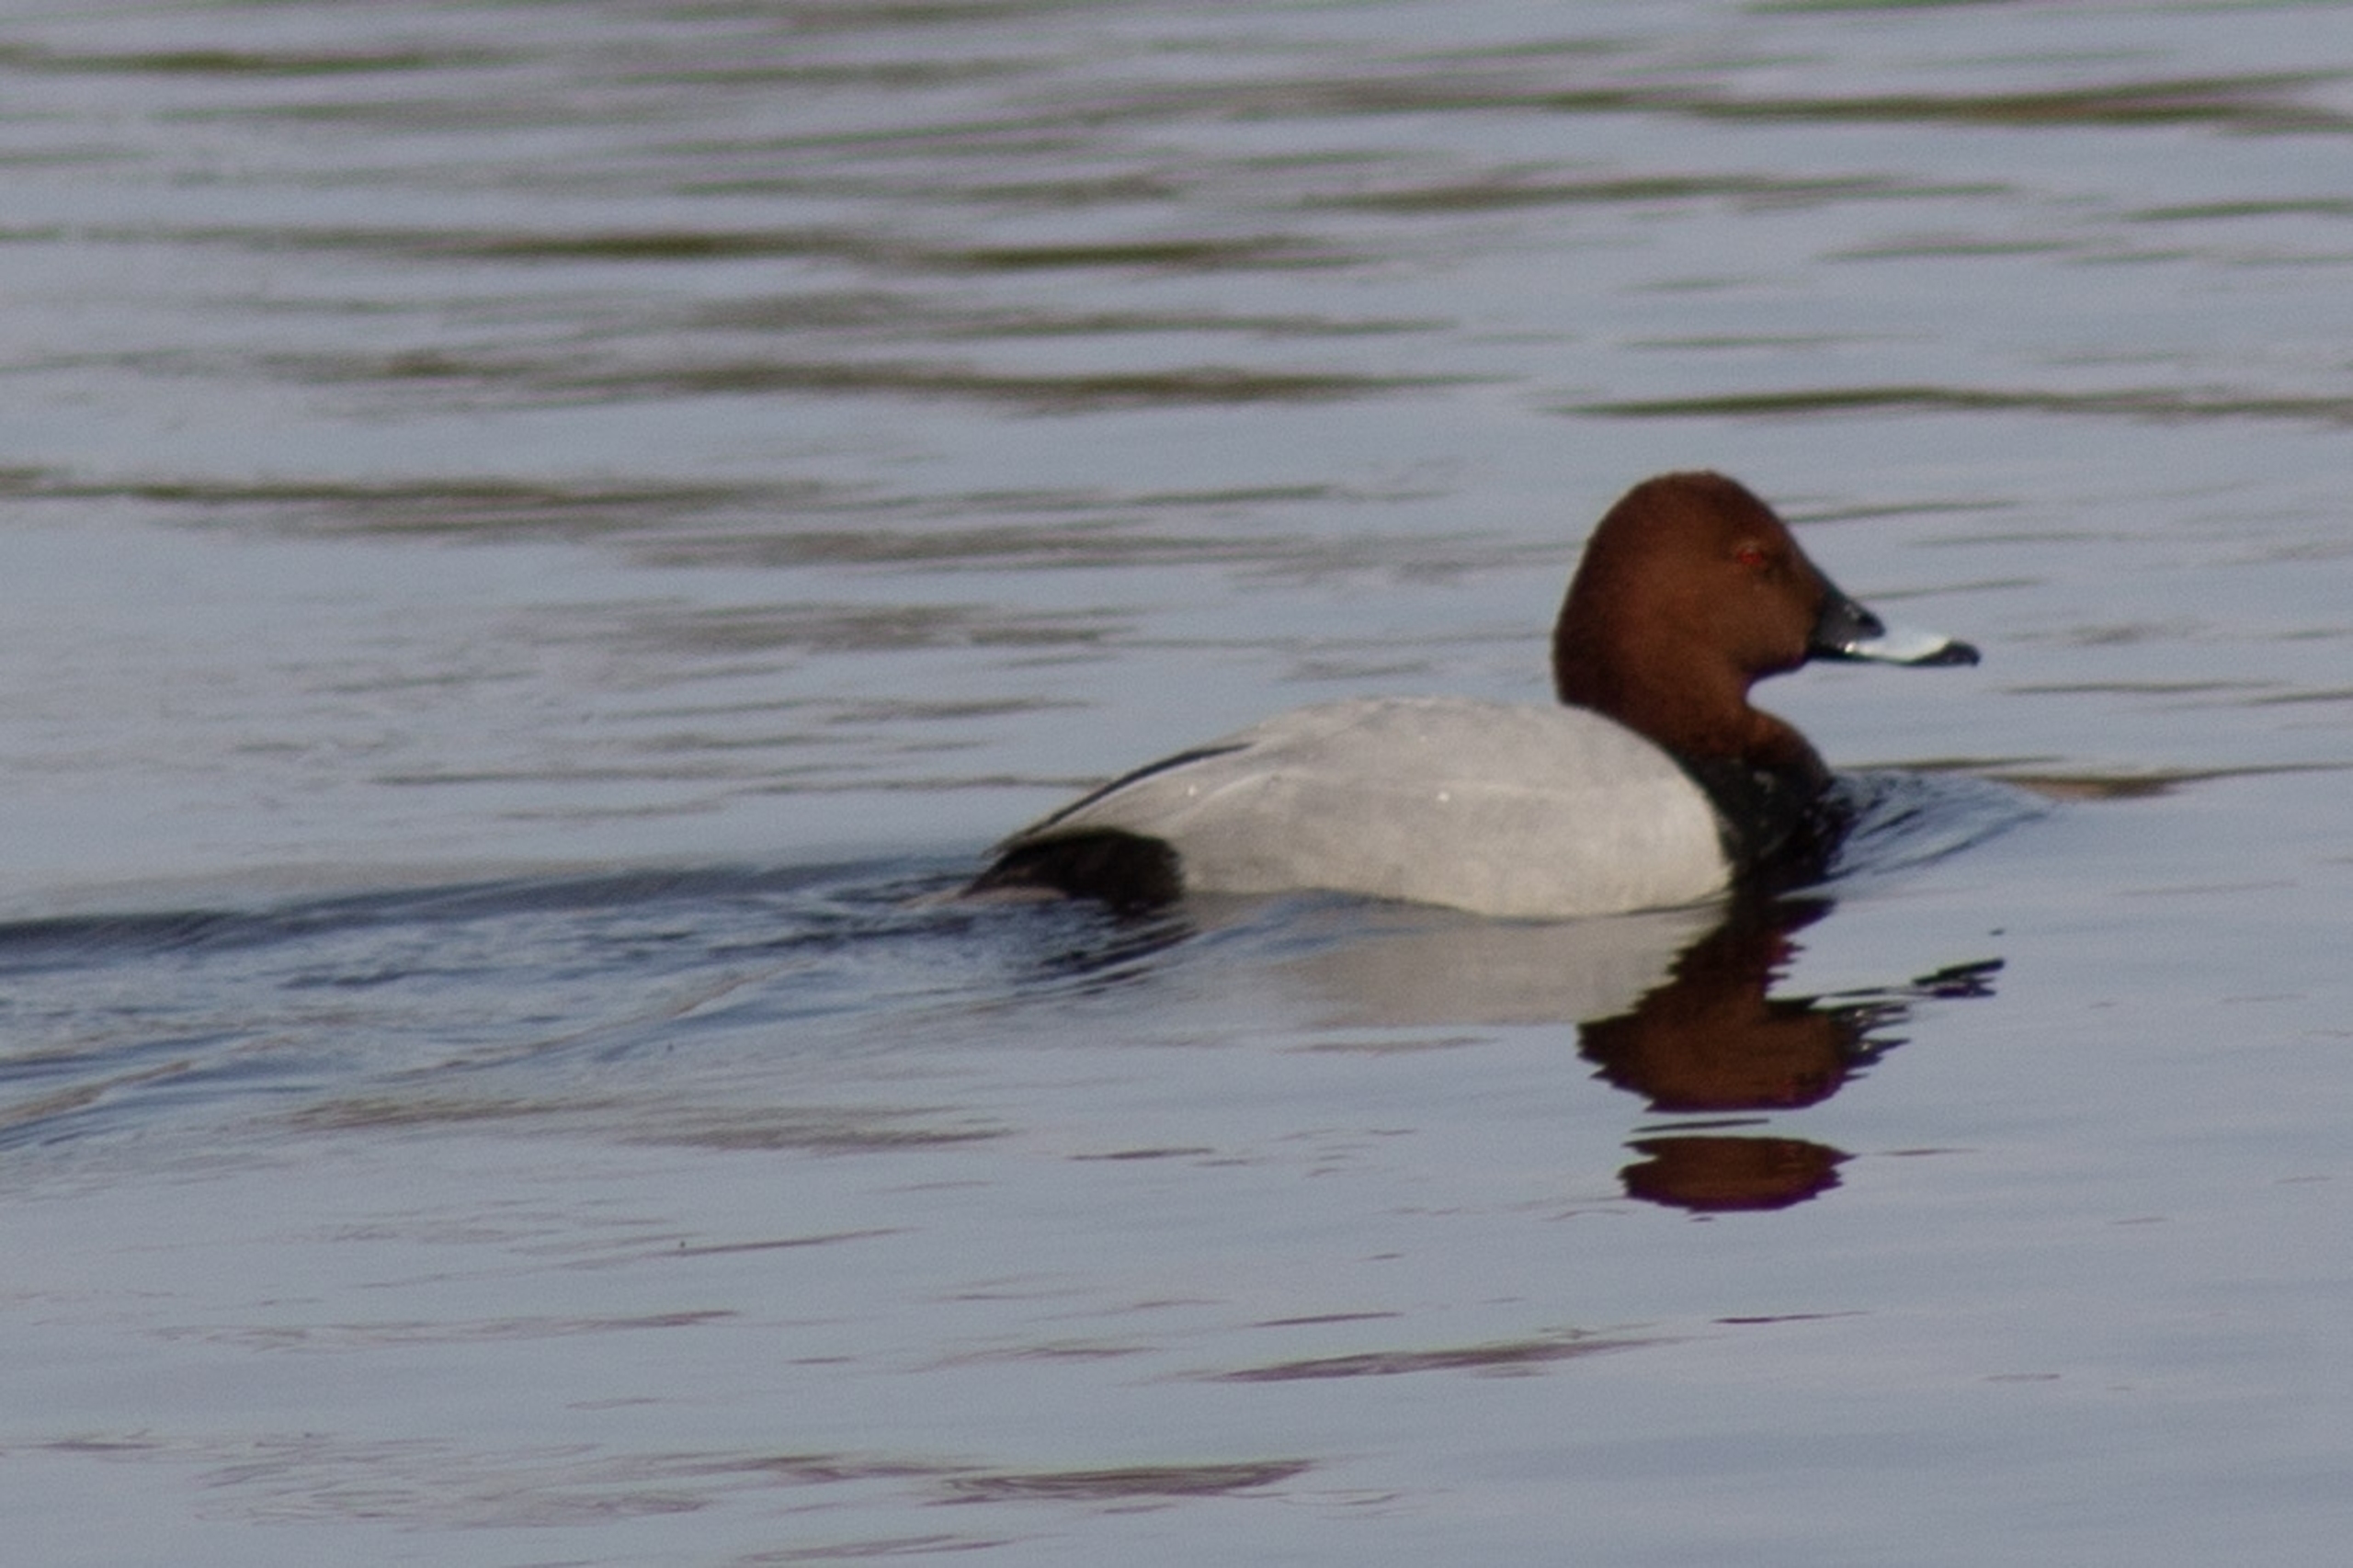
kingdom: Animalia
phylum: Chordata
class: Aves
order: Anseriformes
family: Anatidae
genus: Aythya
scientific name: Aythya ferina
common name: Taffeland
